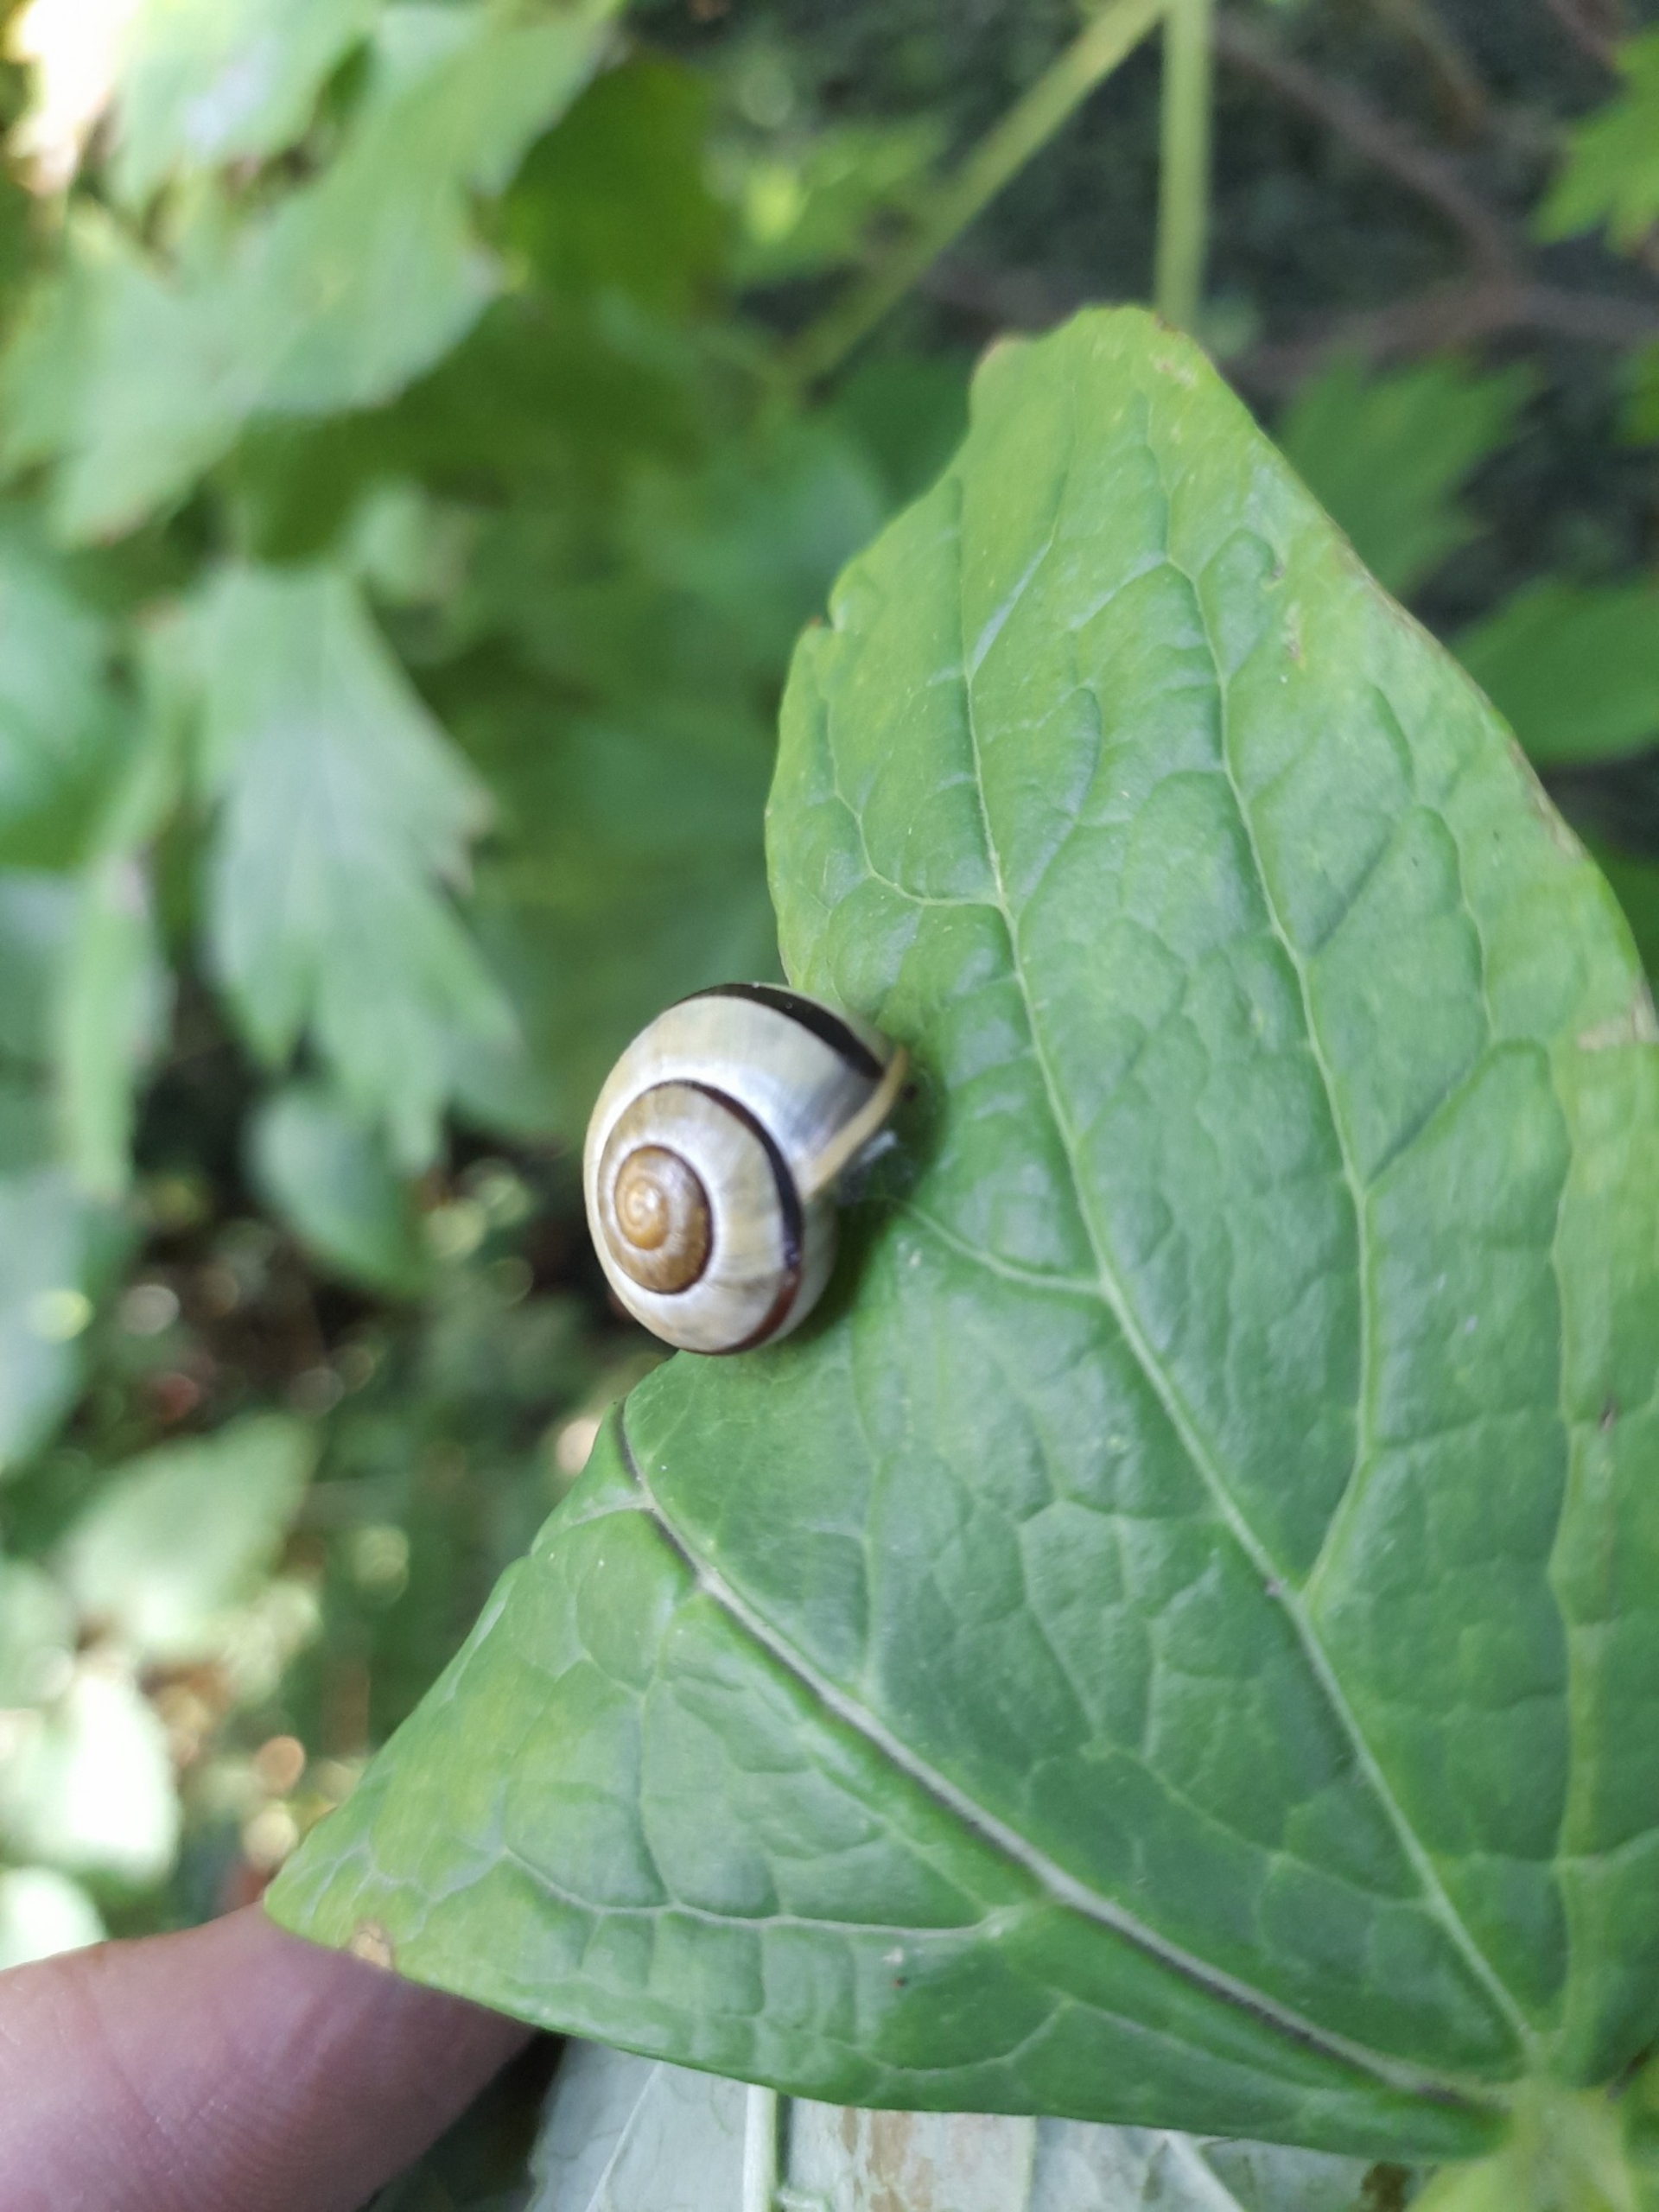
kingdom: Animalia
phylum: Mollusca
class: Gastropoda
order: Stylommatophora
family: Helicidae
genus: Cepaea
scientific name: Cepaea hortensis
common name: Havesnegl
